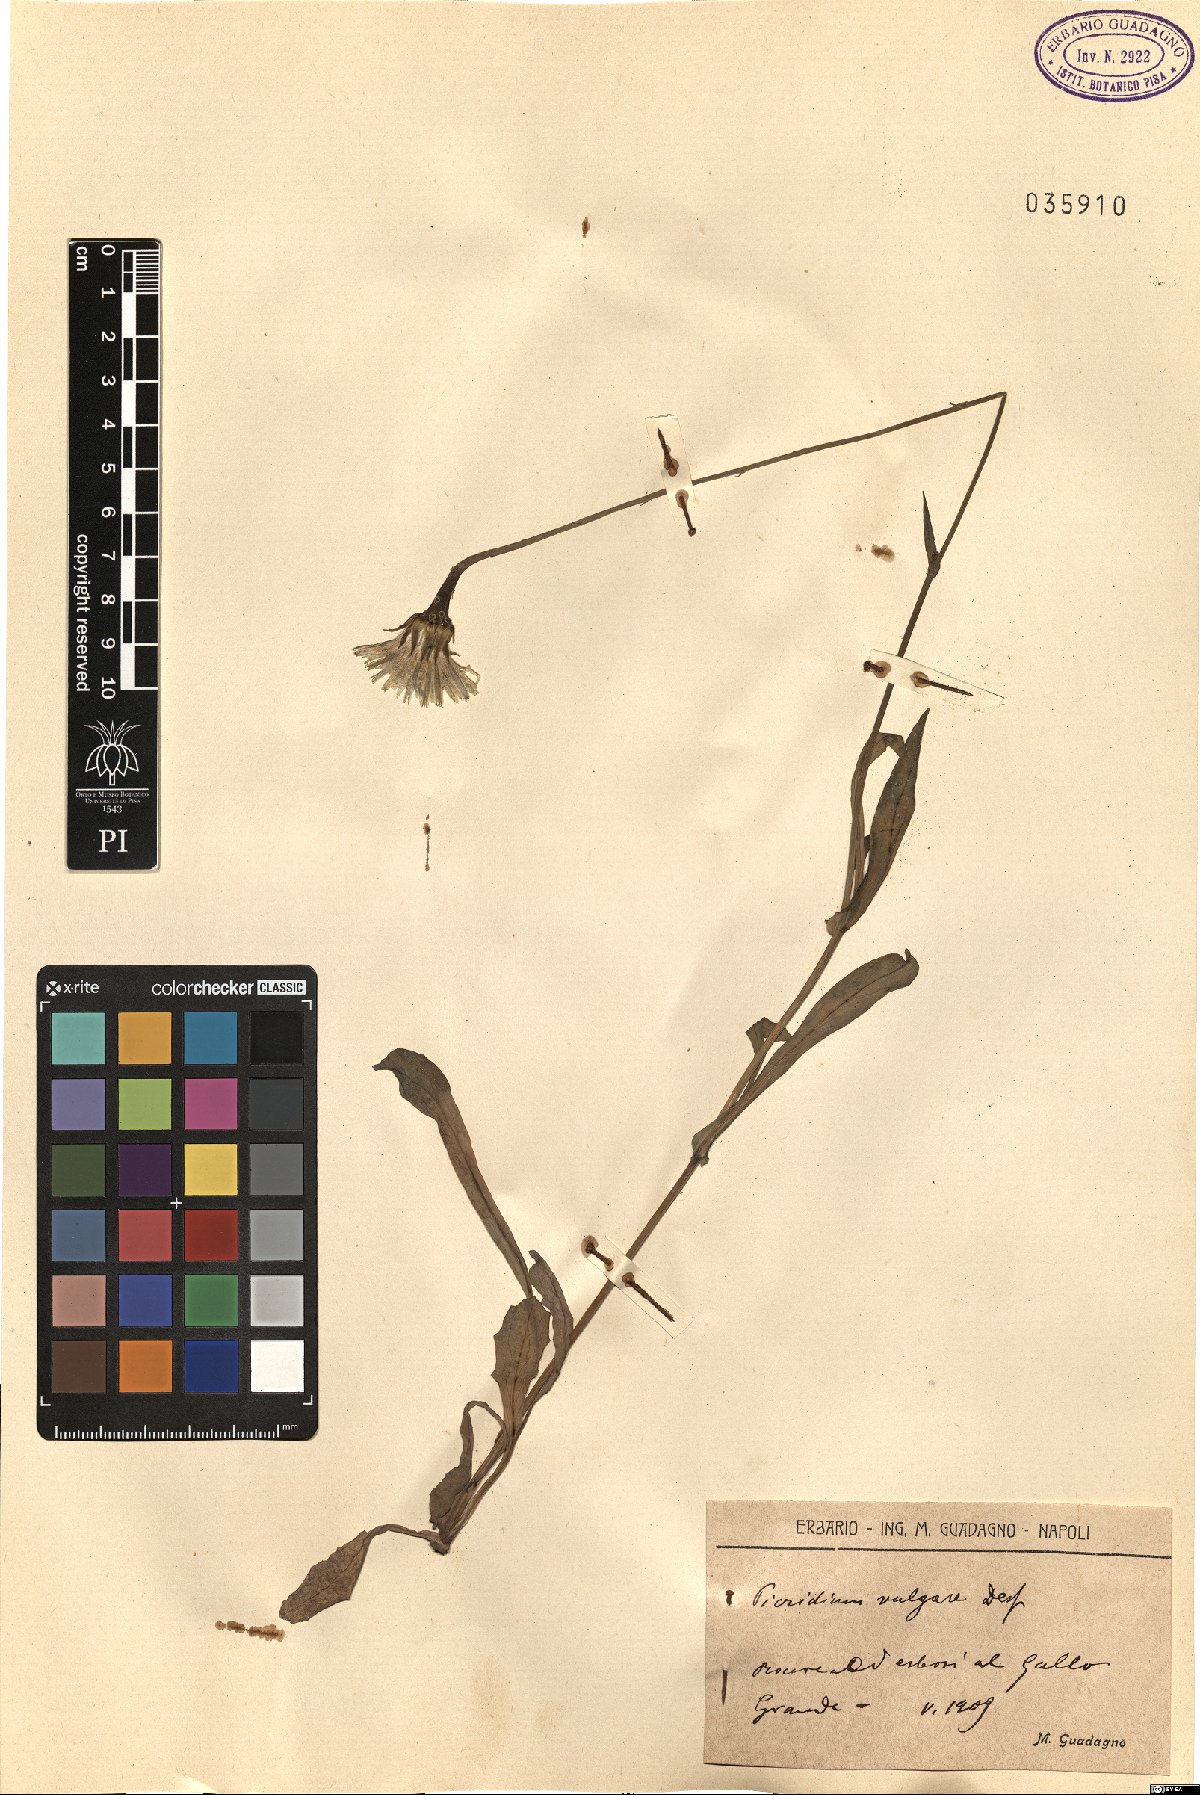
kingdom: Plantae
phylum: Tracheophyta
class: Magnoliopsida
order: Asterales
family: Asteraceae
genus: Reichardia
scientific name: Reichardia picroides
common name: Common brighteyes
